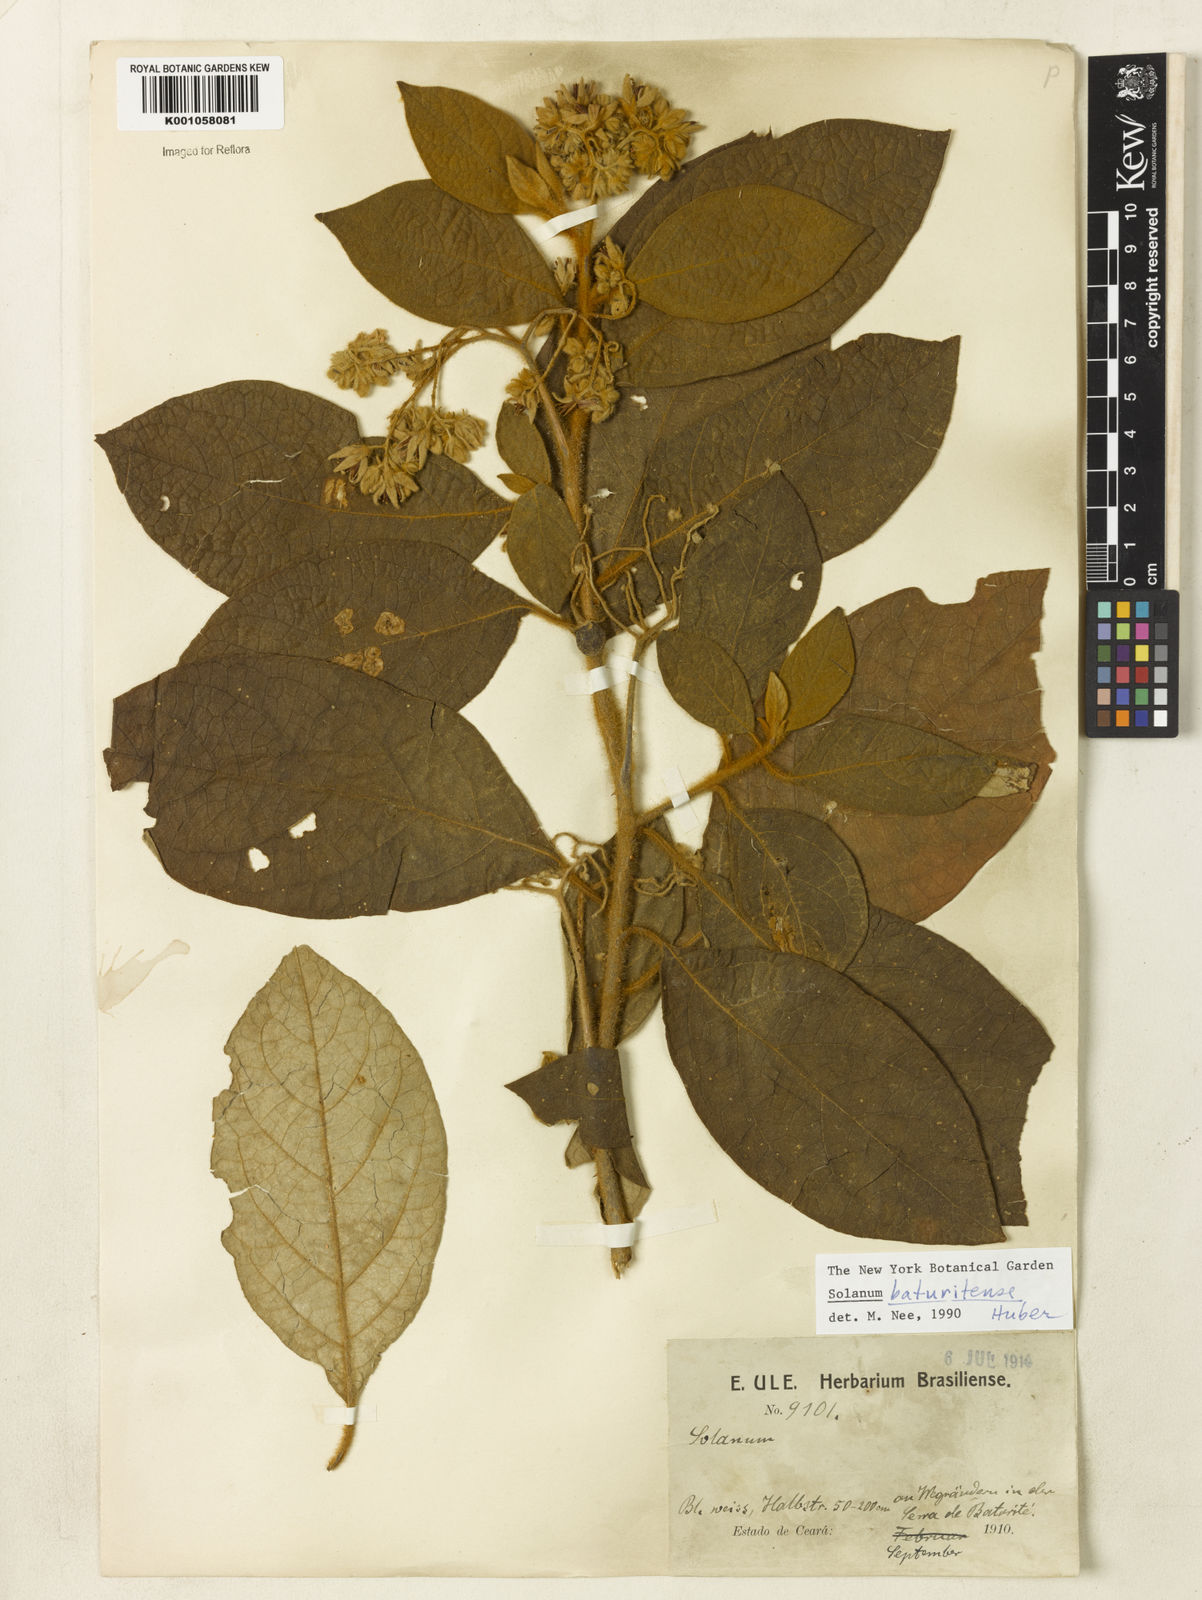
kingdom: Plantae
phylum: Tracheophyta
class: Magnoliopsida
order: Solanales
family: Solanaceae
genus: Solanum
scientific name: Solanum rhytidoandrum
